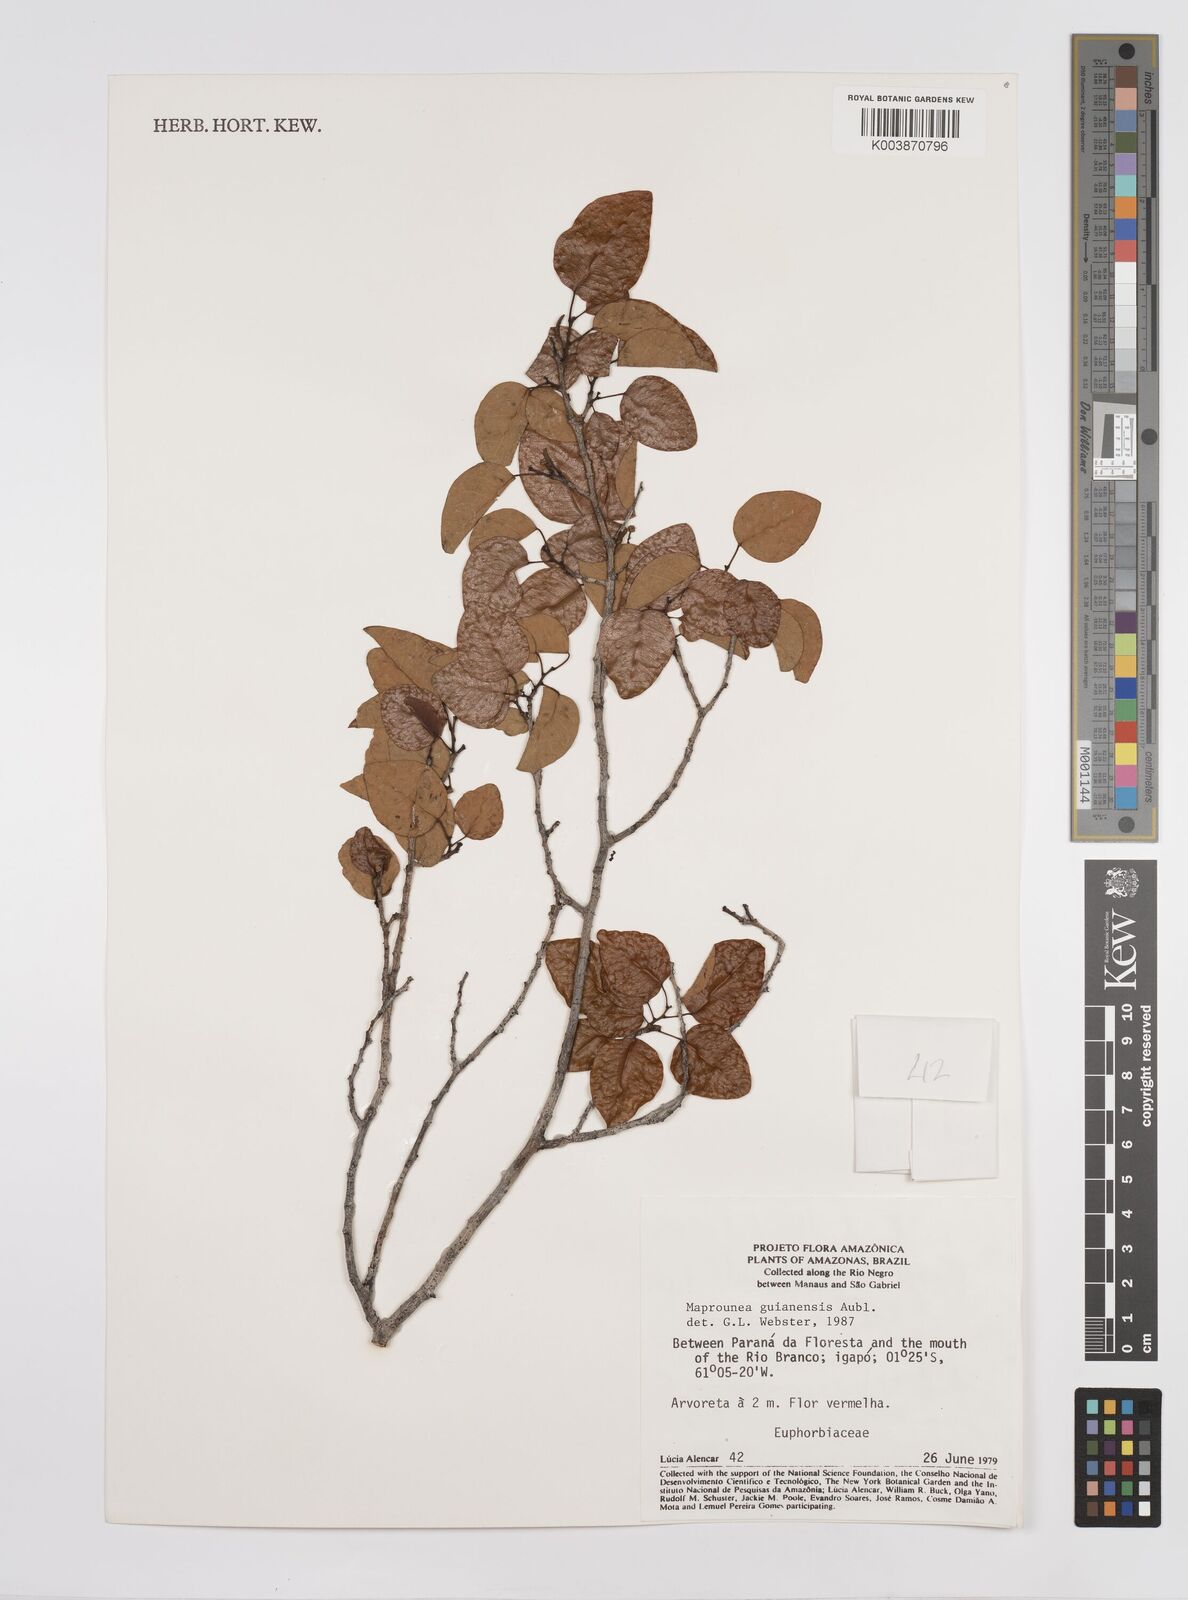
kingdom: Plantae
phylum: Tracheophyta
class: Magnoliopsida
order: Malpighiales
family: Euphorbiaceae
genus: Maprounea
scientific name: Maprounea guianensis
